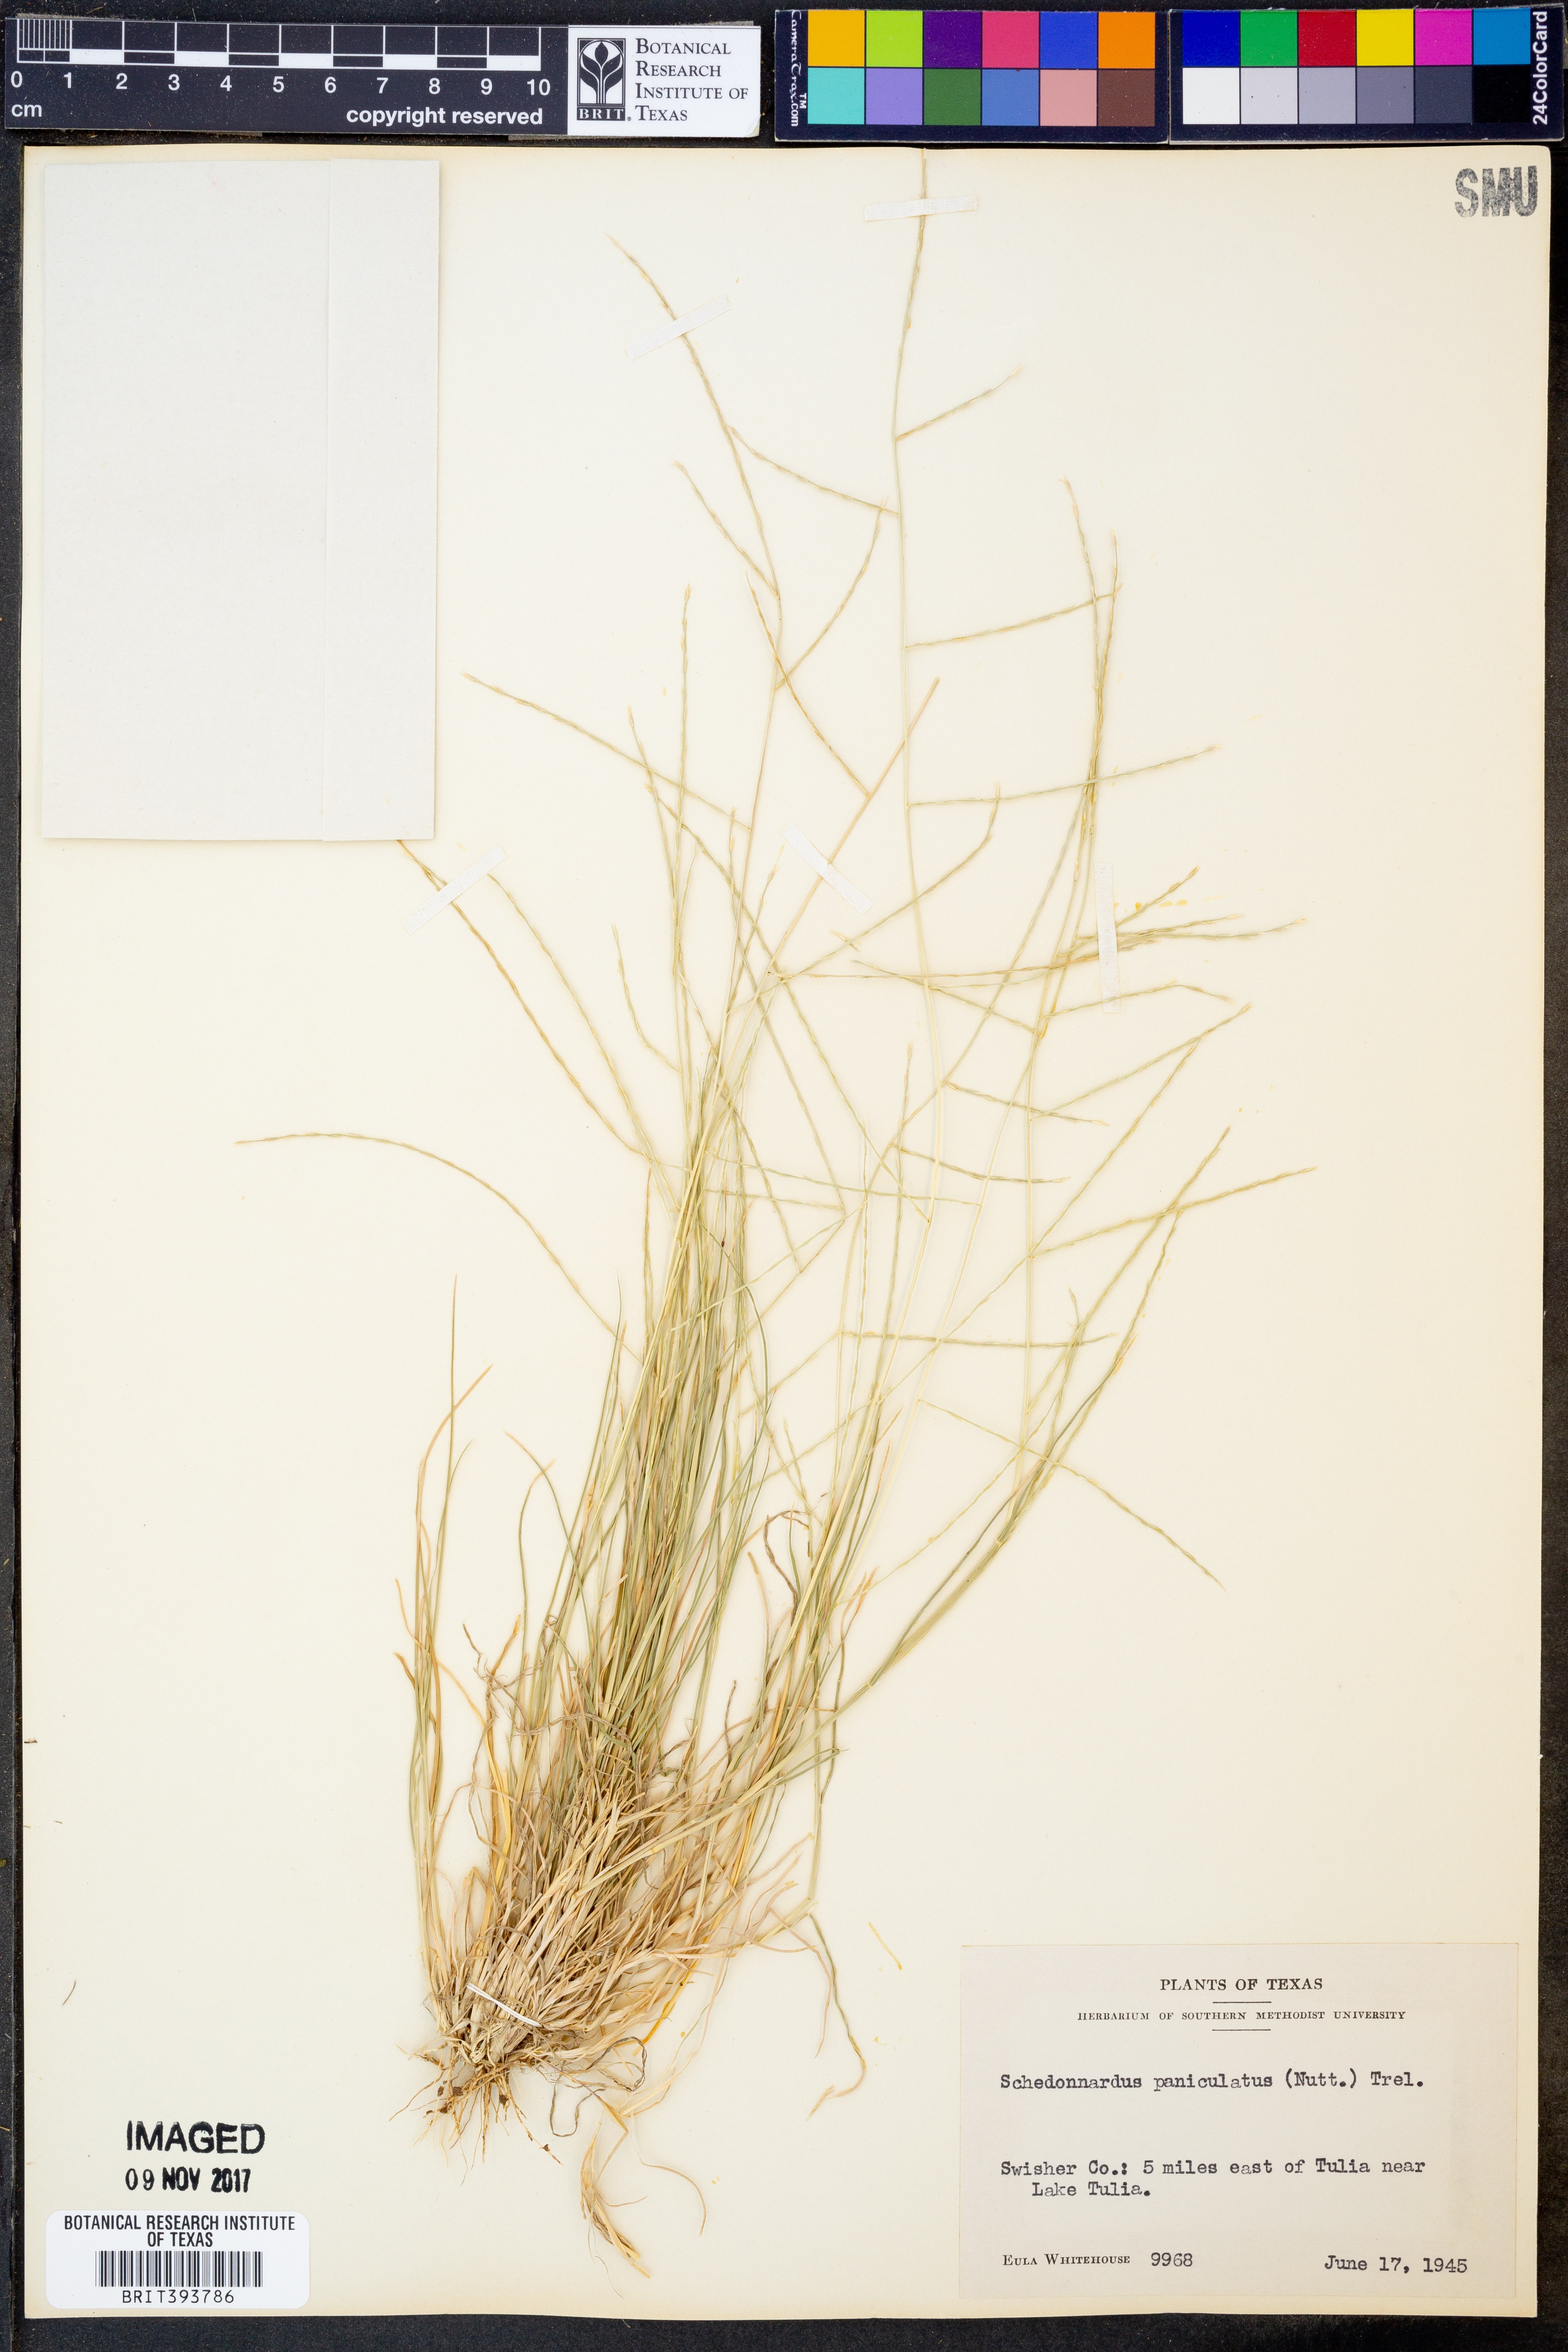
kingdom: Plantae
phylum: Tracheophyta
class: Liliopsida
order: Poales
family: Poaceae
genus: Muhlenbergia
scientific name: Muhlenbergia paniculata
